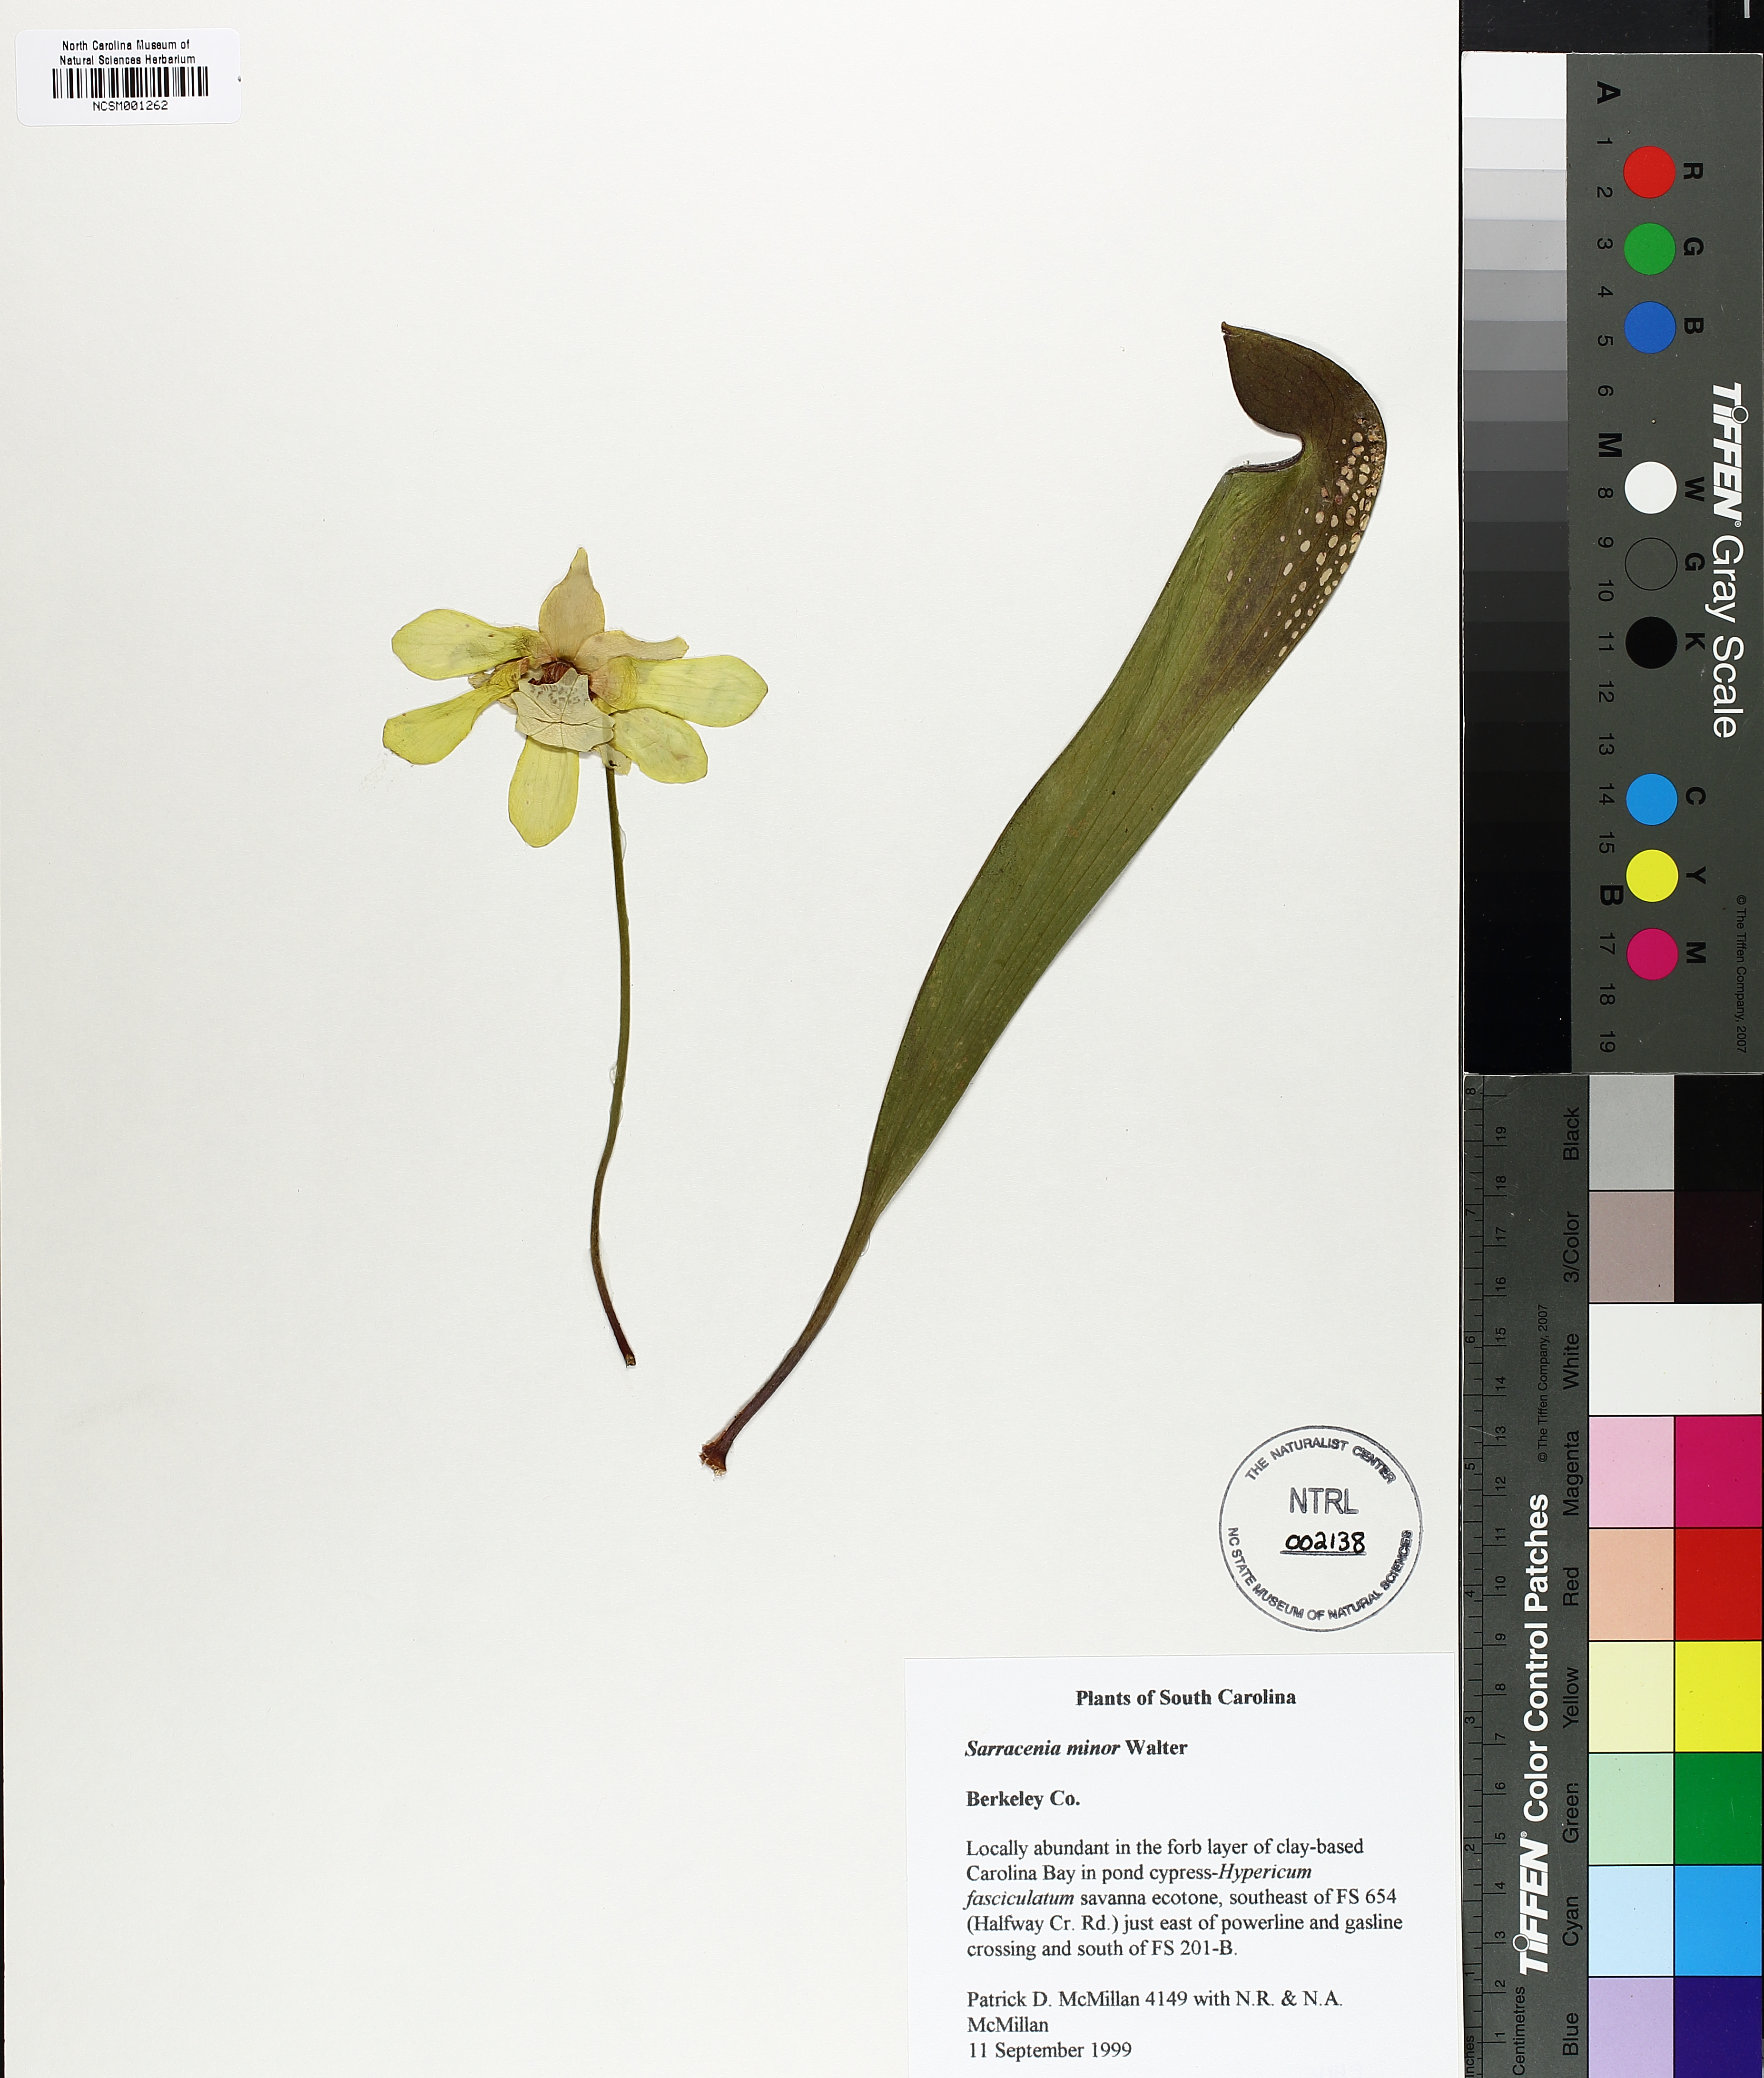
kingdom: Plantae
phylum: Tracheophyta
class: Magnoliopsida
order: Ericales
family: Sarraceniaceae
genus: Sarracenia
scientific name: Sarracenia minor
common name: Rainhat-trumpet
